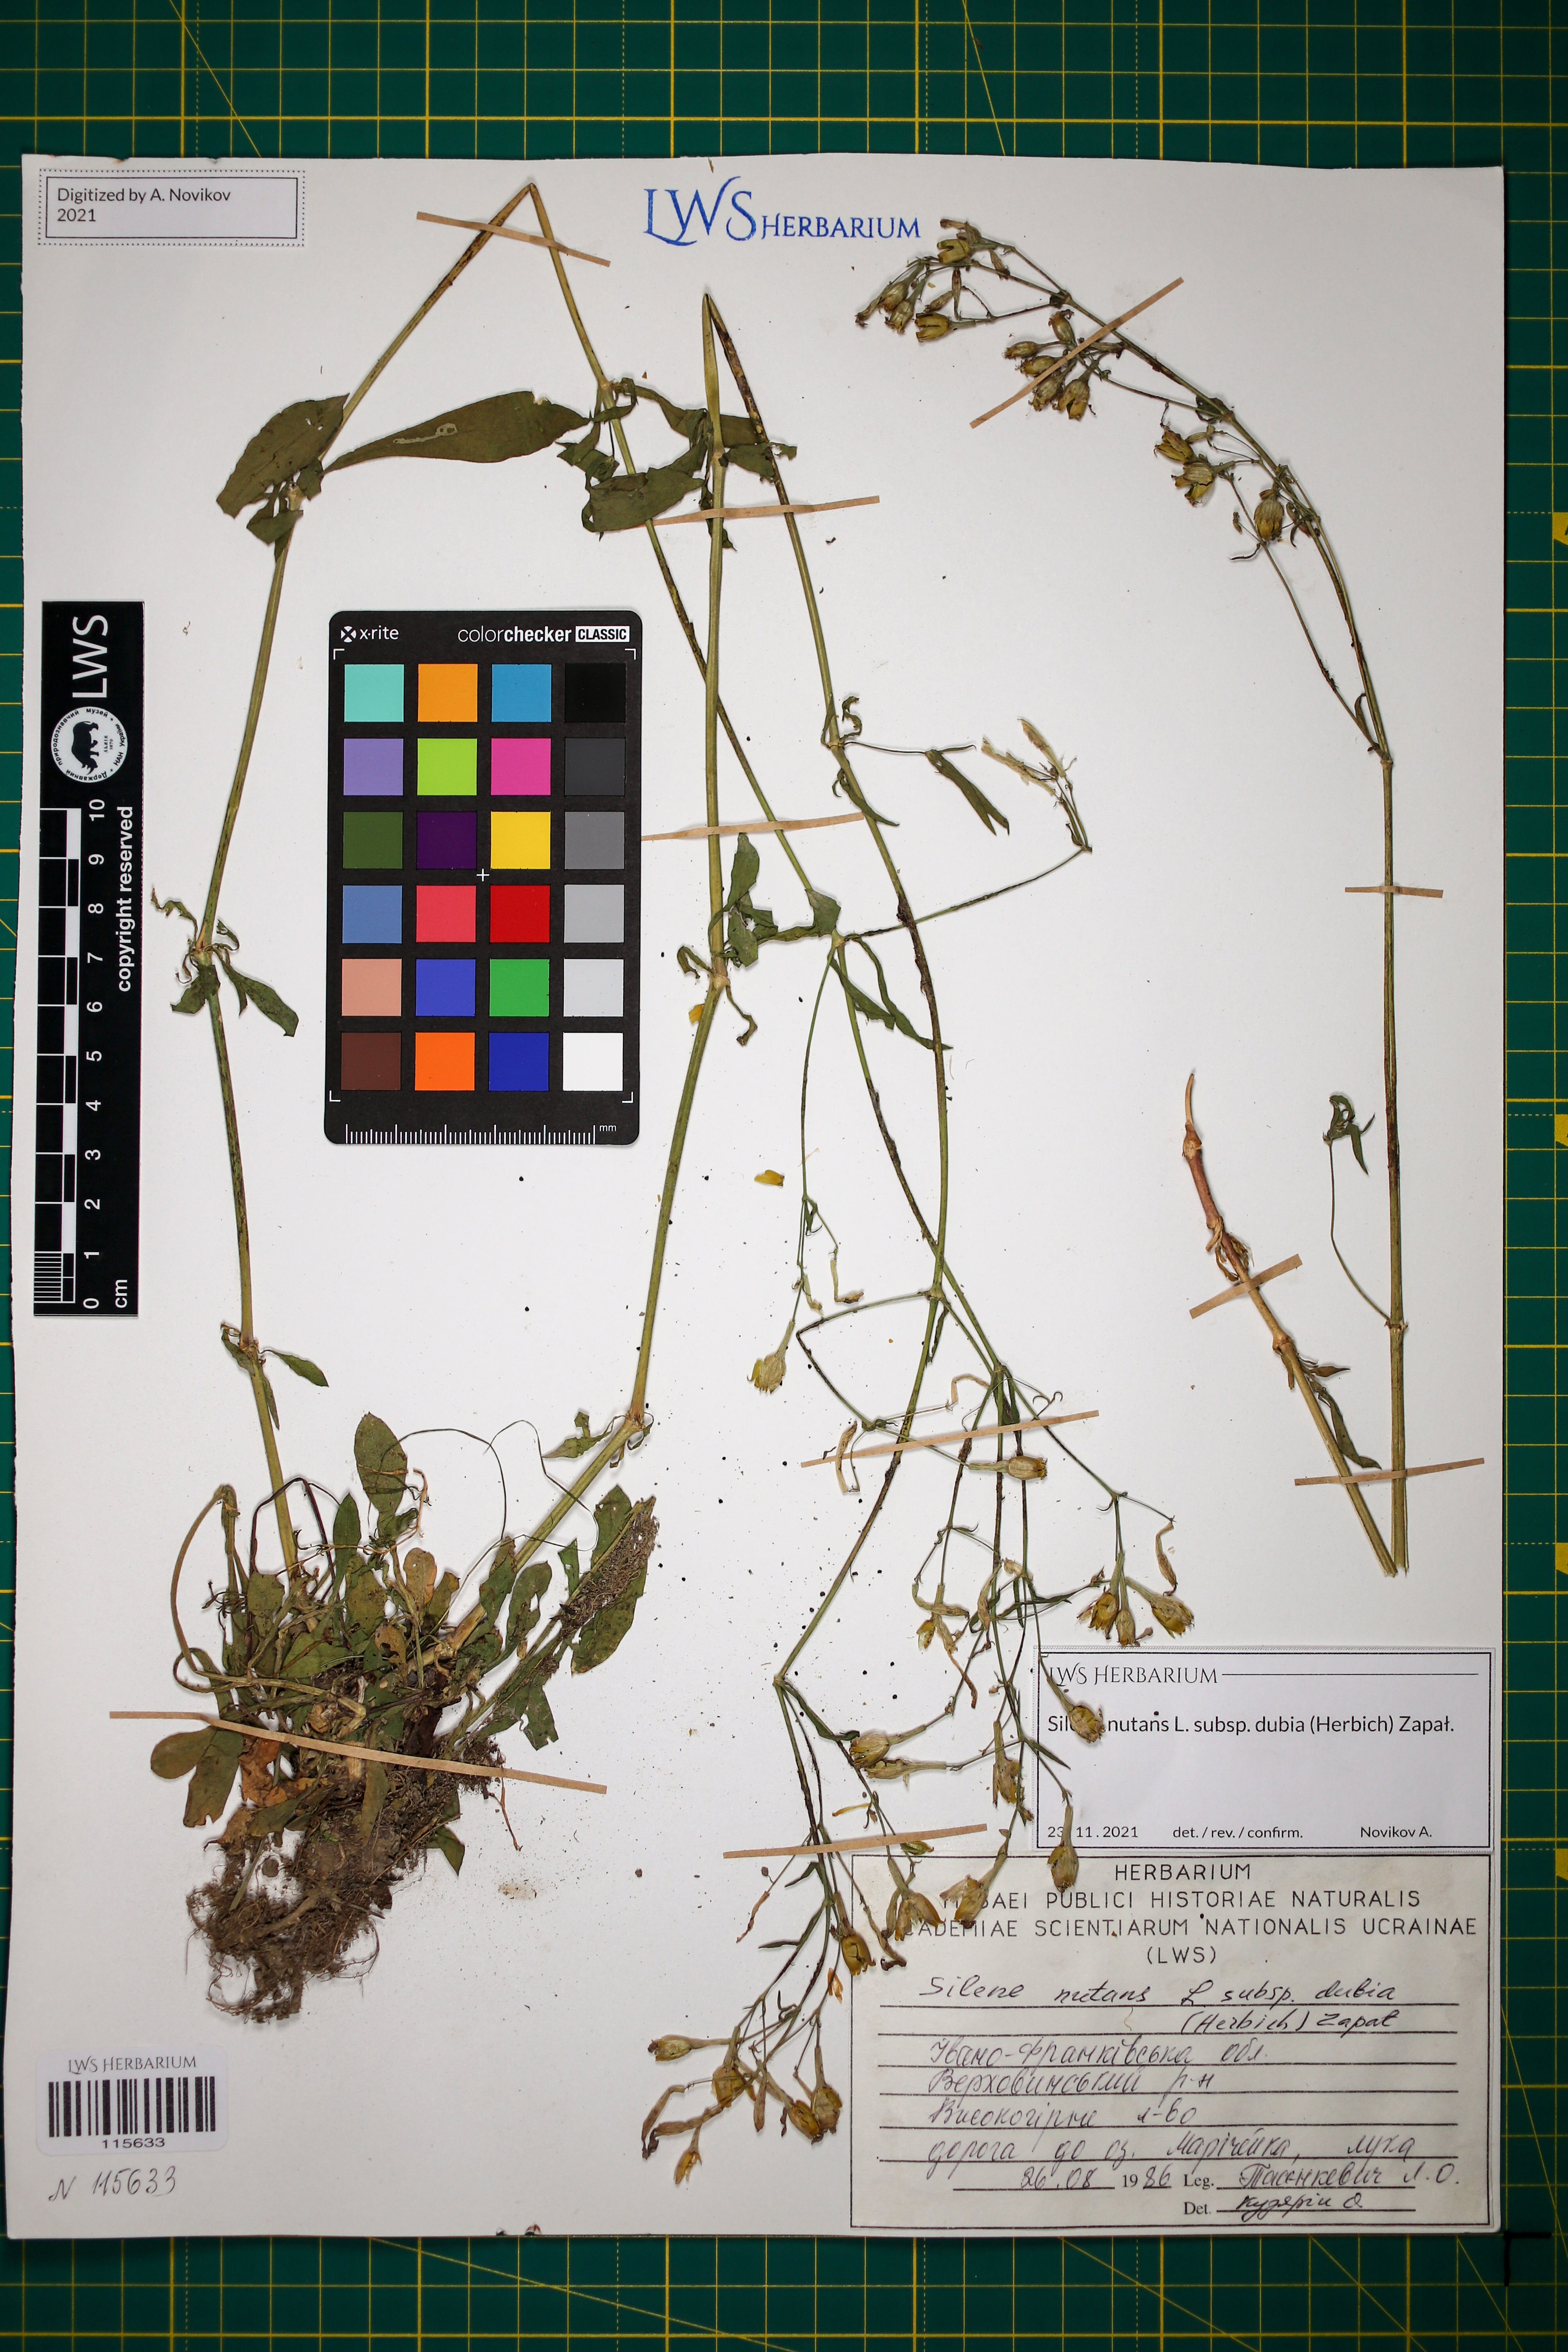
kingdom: Plantae
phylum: Tracheophyta
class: Magnoliopsida
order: Caryophyllales
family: Caryophyllaceae
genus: Silene
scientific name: Silene nutans
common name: Nottingham catchfly
